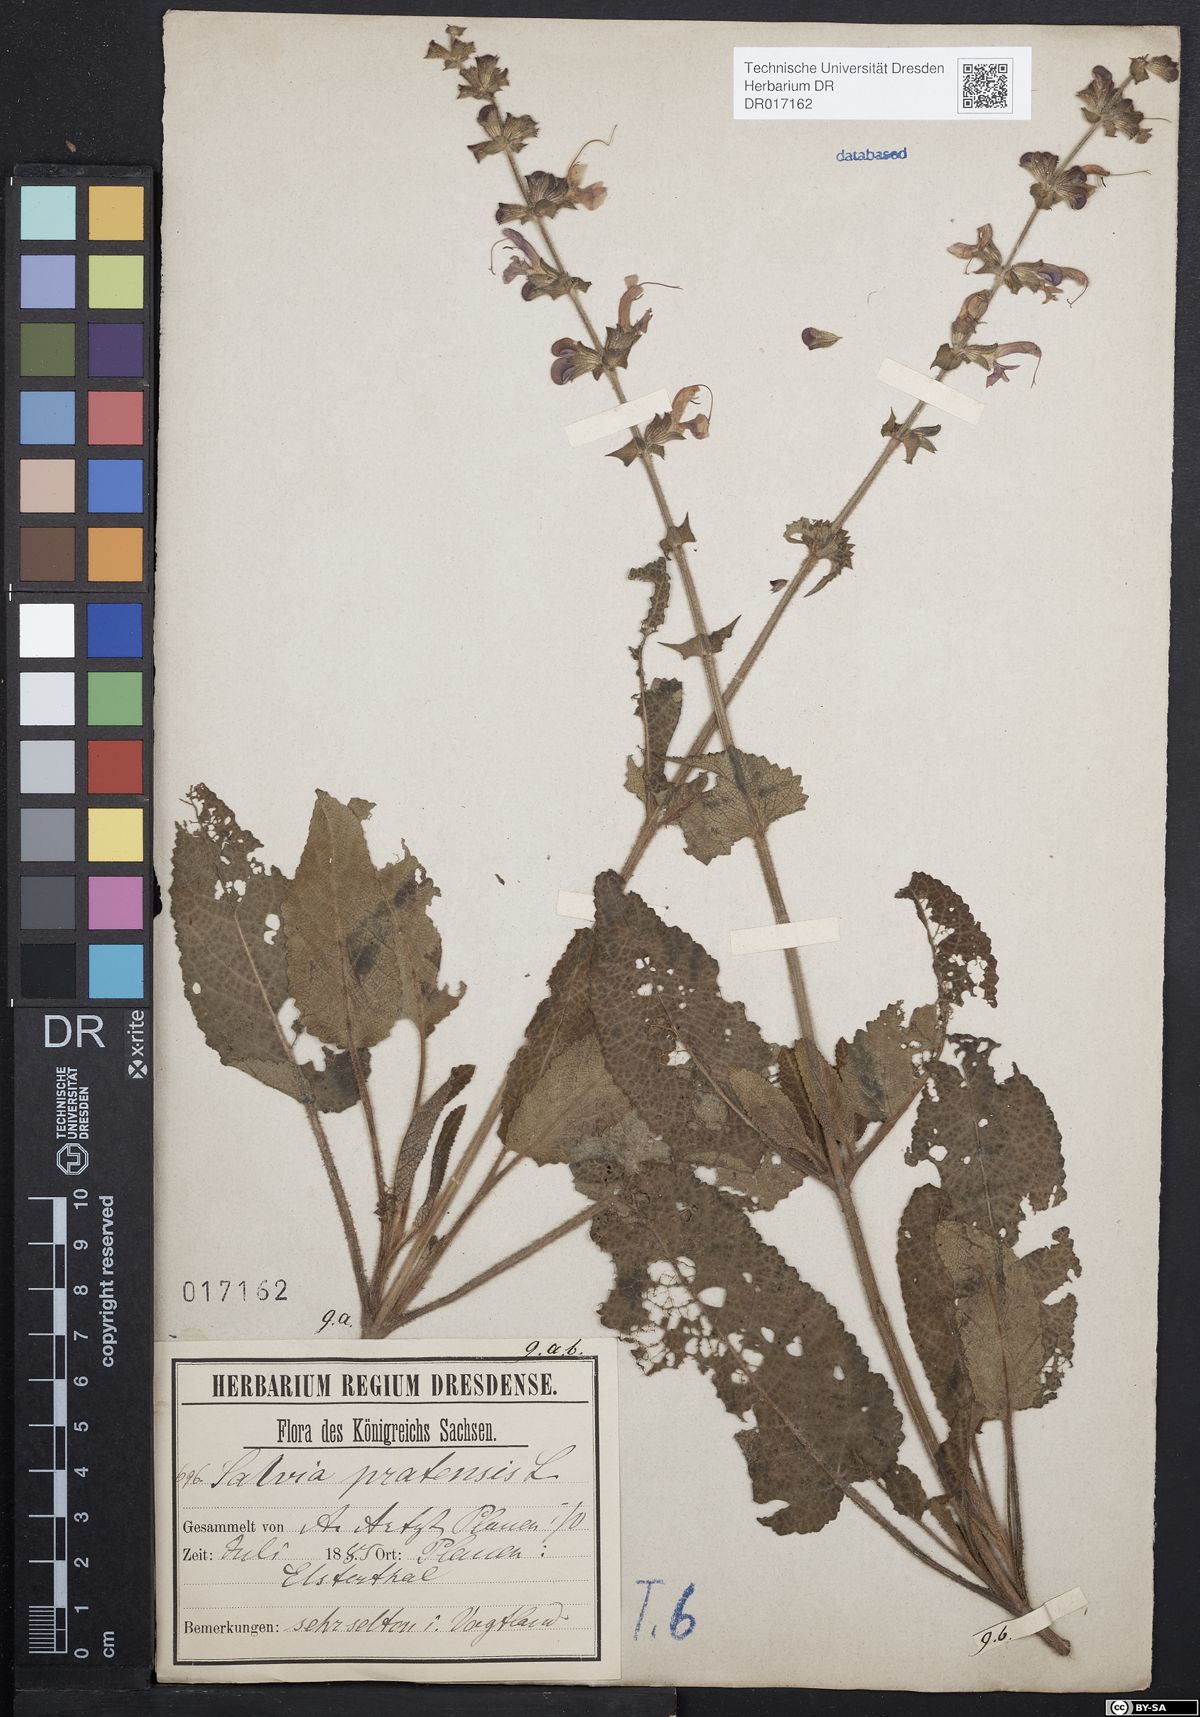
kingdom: Plantae
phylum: Tracheophyta
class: Magnoliopsida
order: Lamiales
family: Lamiaceae
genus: Salvia
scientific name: Salvia pratensis
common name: Meadow sage
